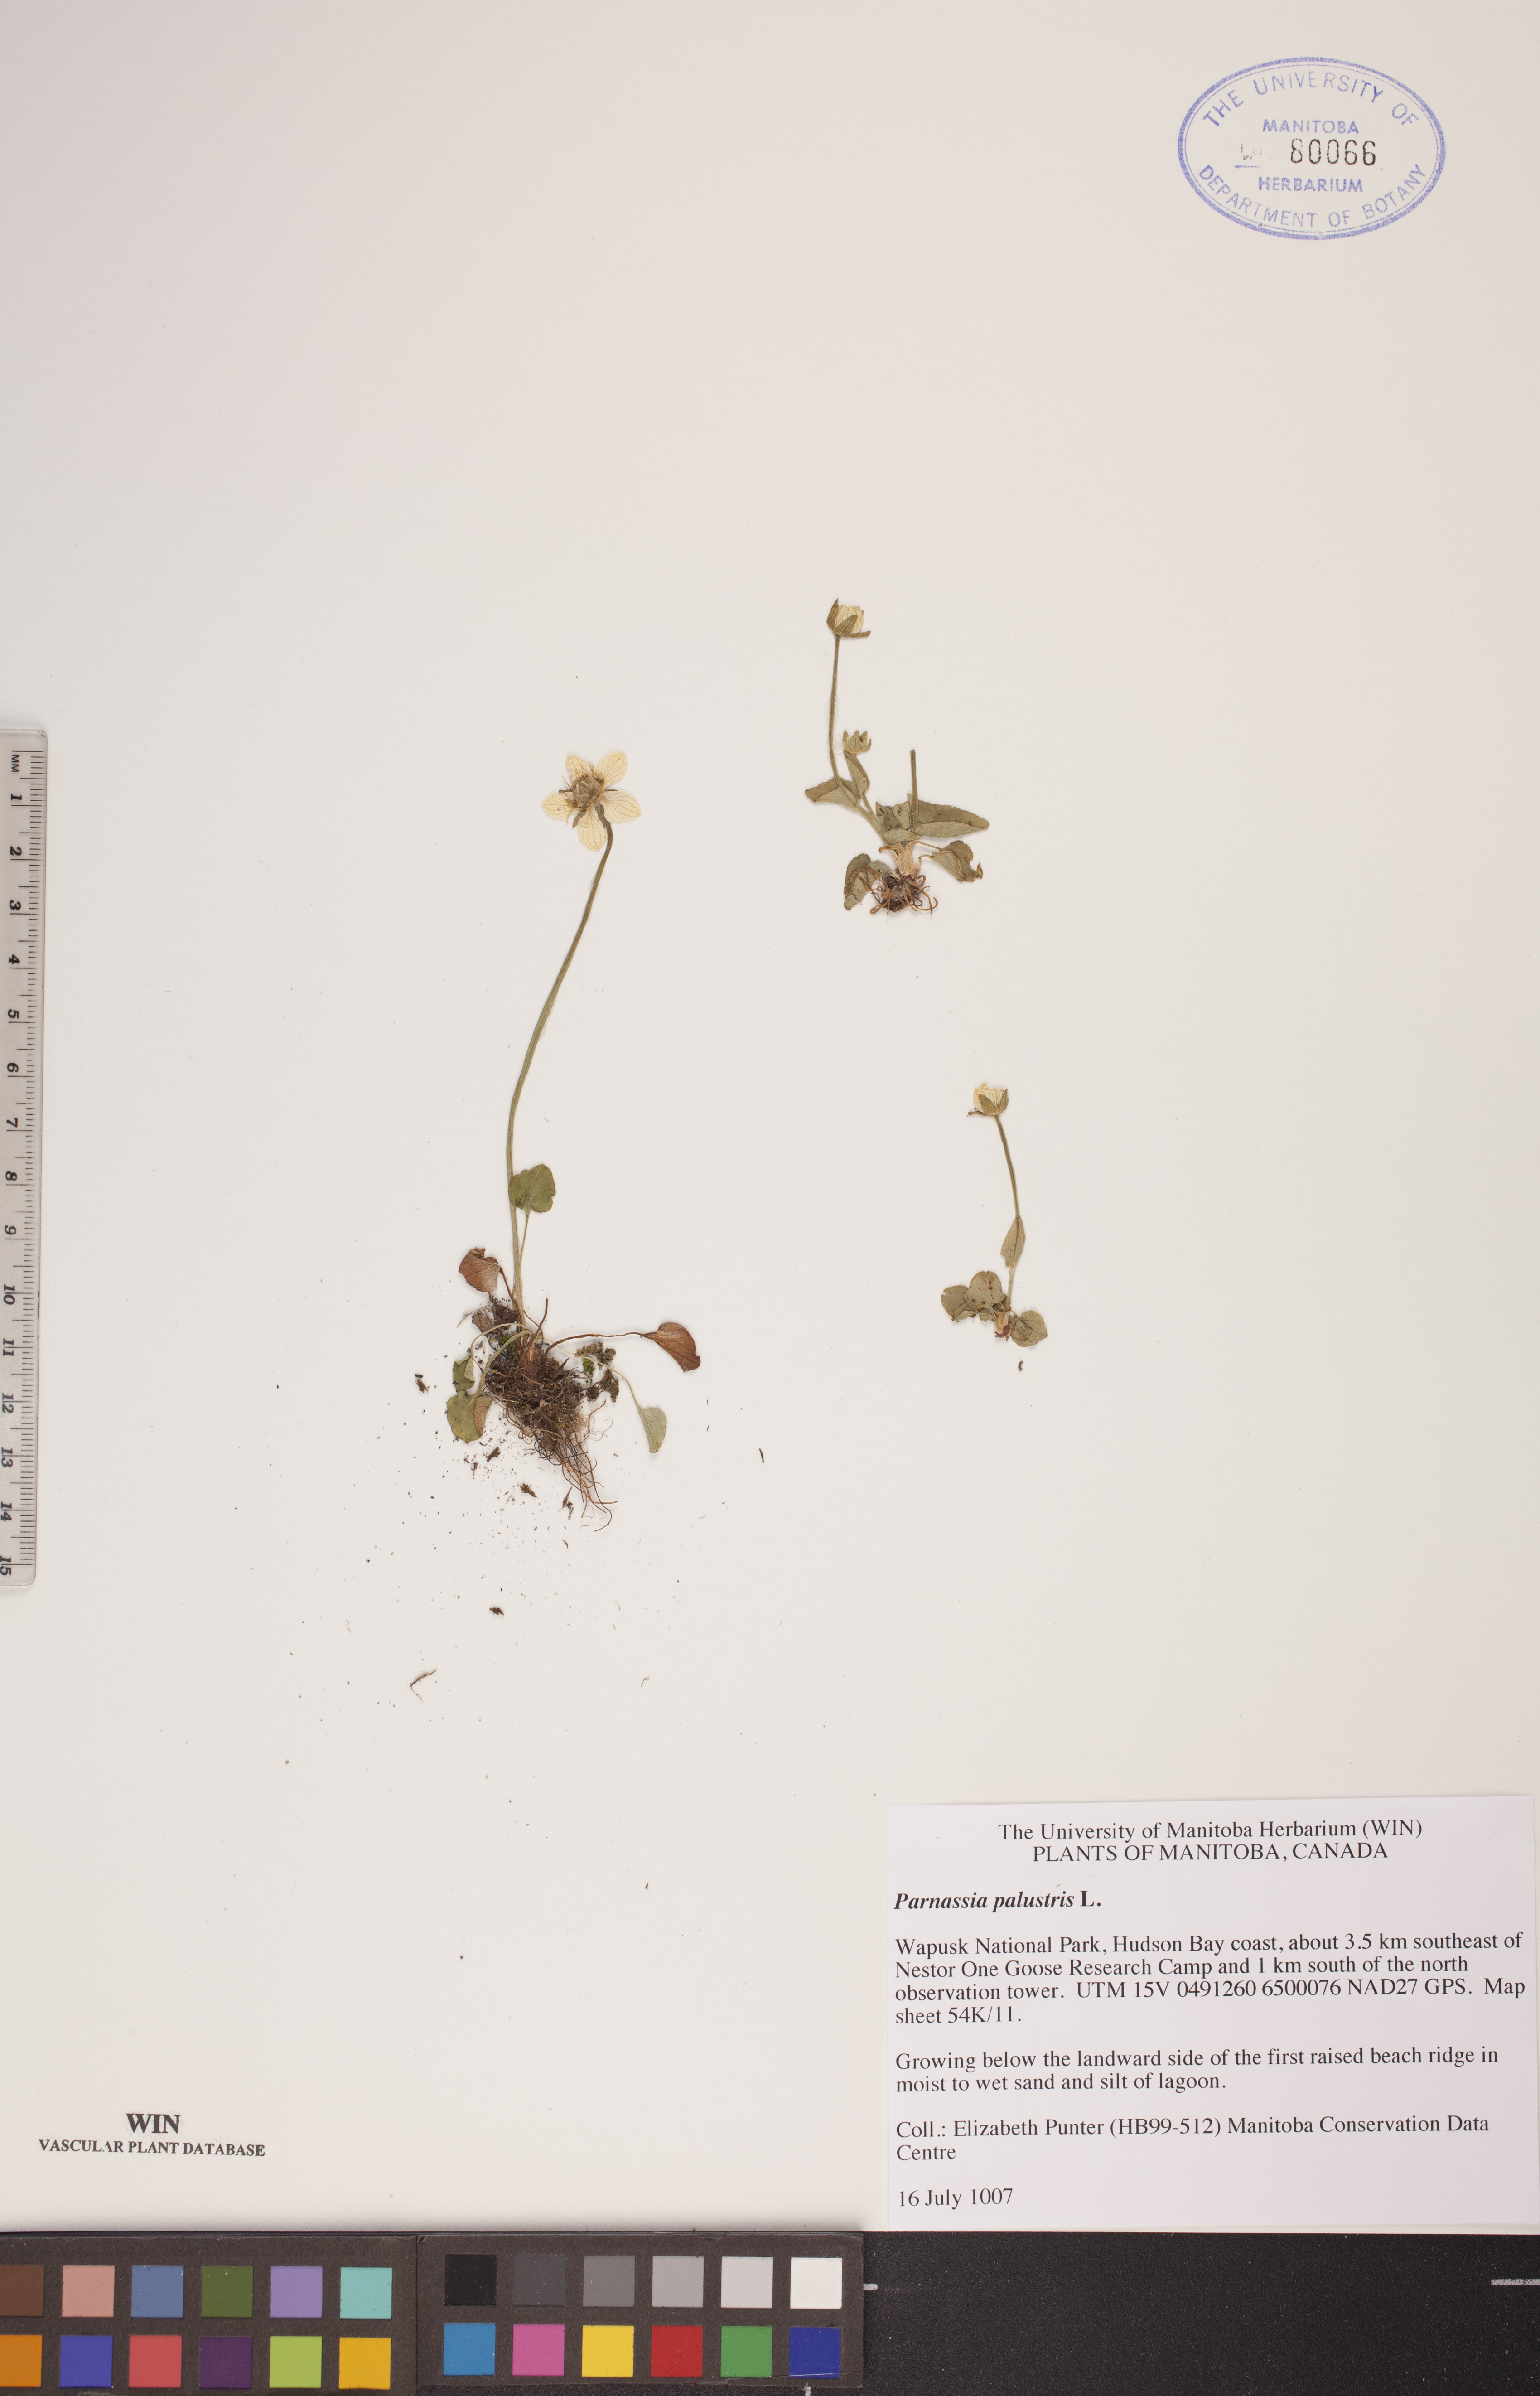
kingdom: Plantae
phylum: Tracheophyta
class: Magnoliopsida
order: Celastrales
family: Parnassiaceae
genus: Parnassia
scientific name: Parnassia palustris
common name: Grass-of-parnassus
